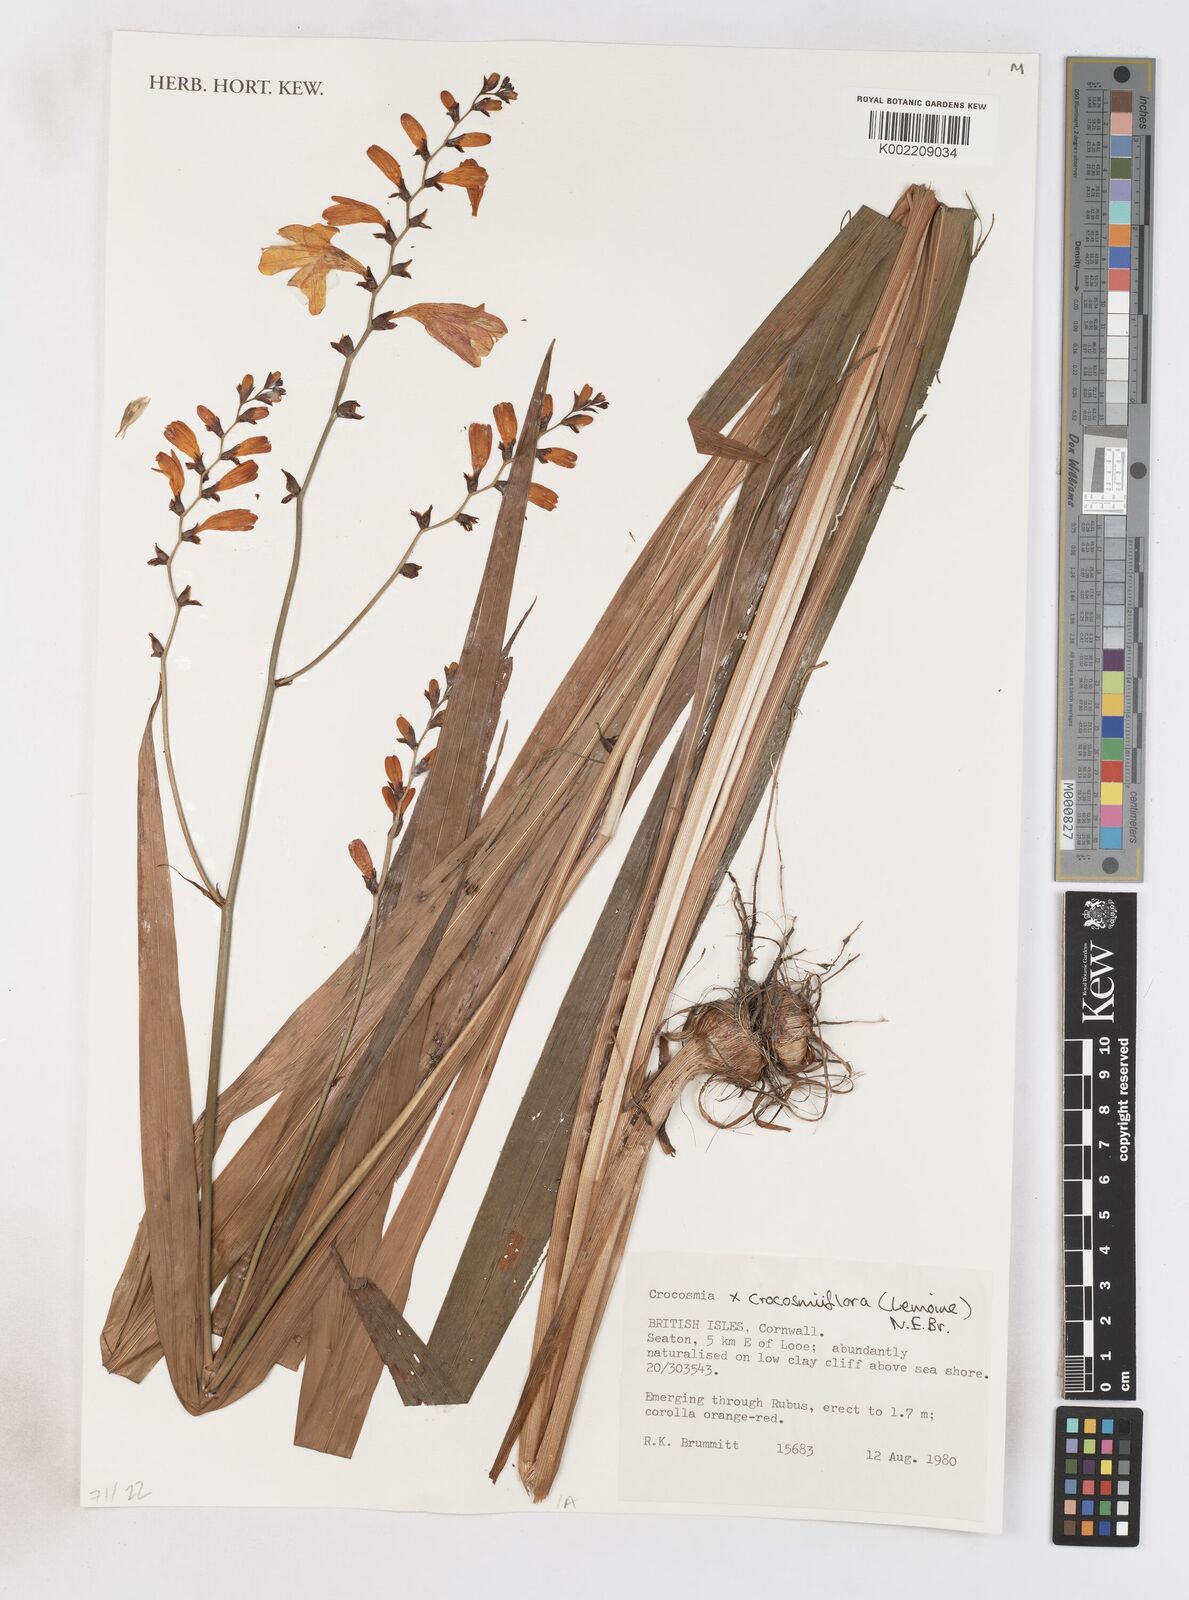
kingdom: Plantae
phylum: Tracheophyta
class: Liliopsida
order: Asparagales
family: Iridaceae
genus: Crocosmia
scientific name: Crocosmia crocosmiiflora
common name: Montbretia
